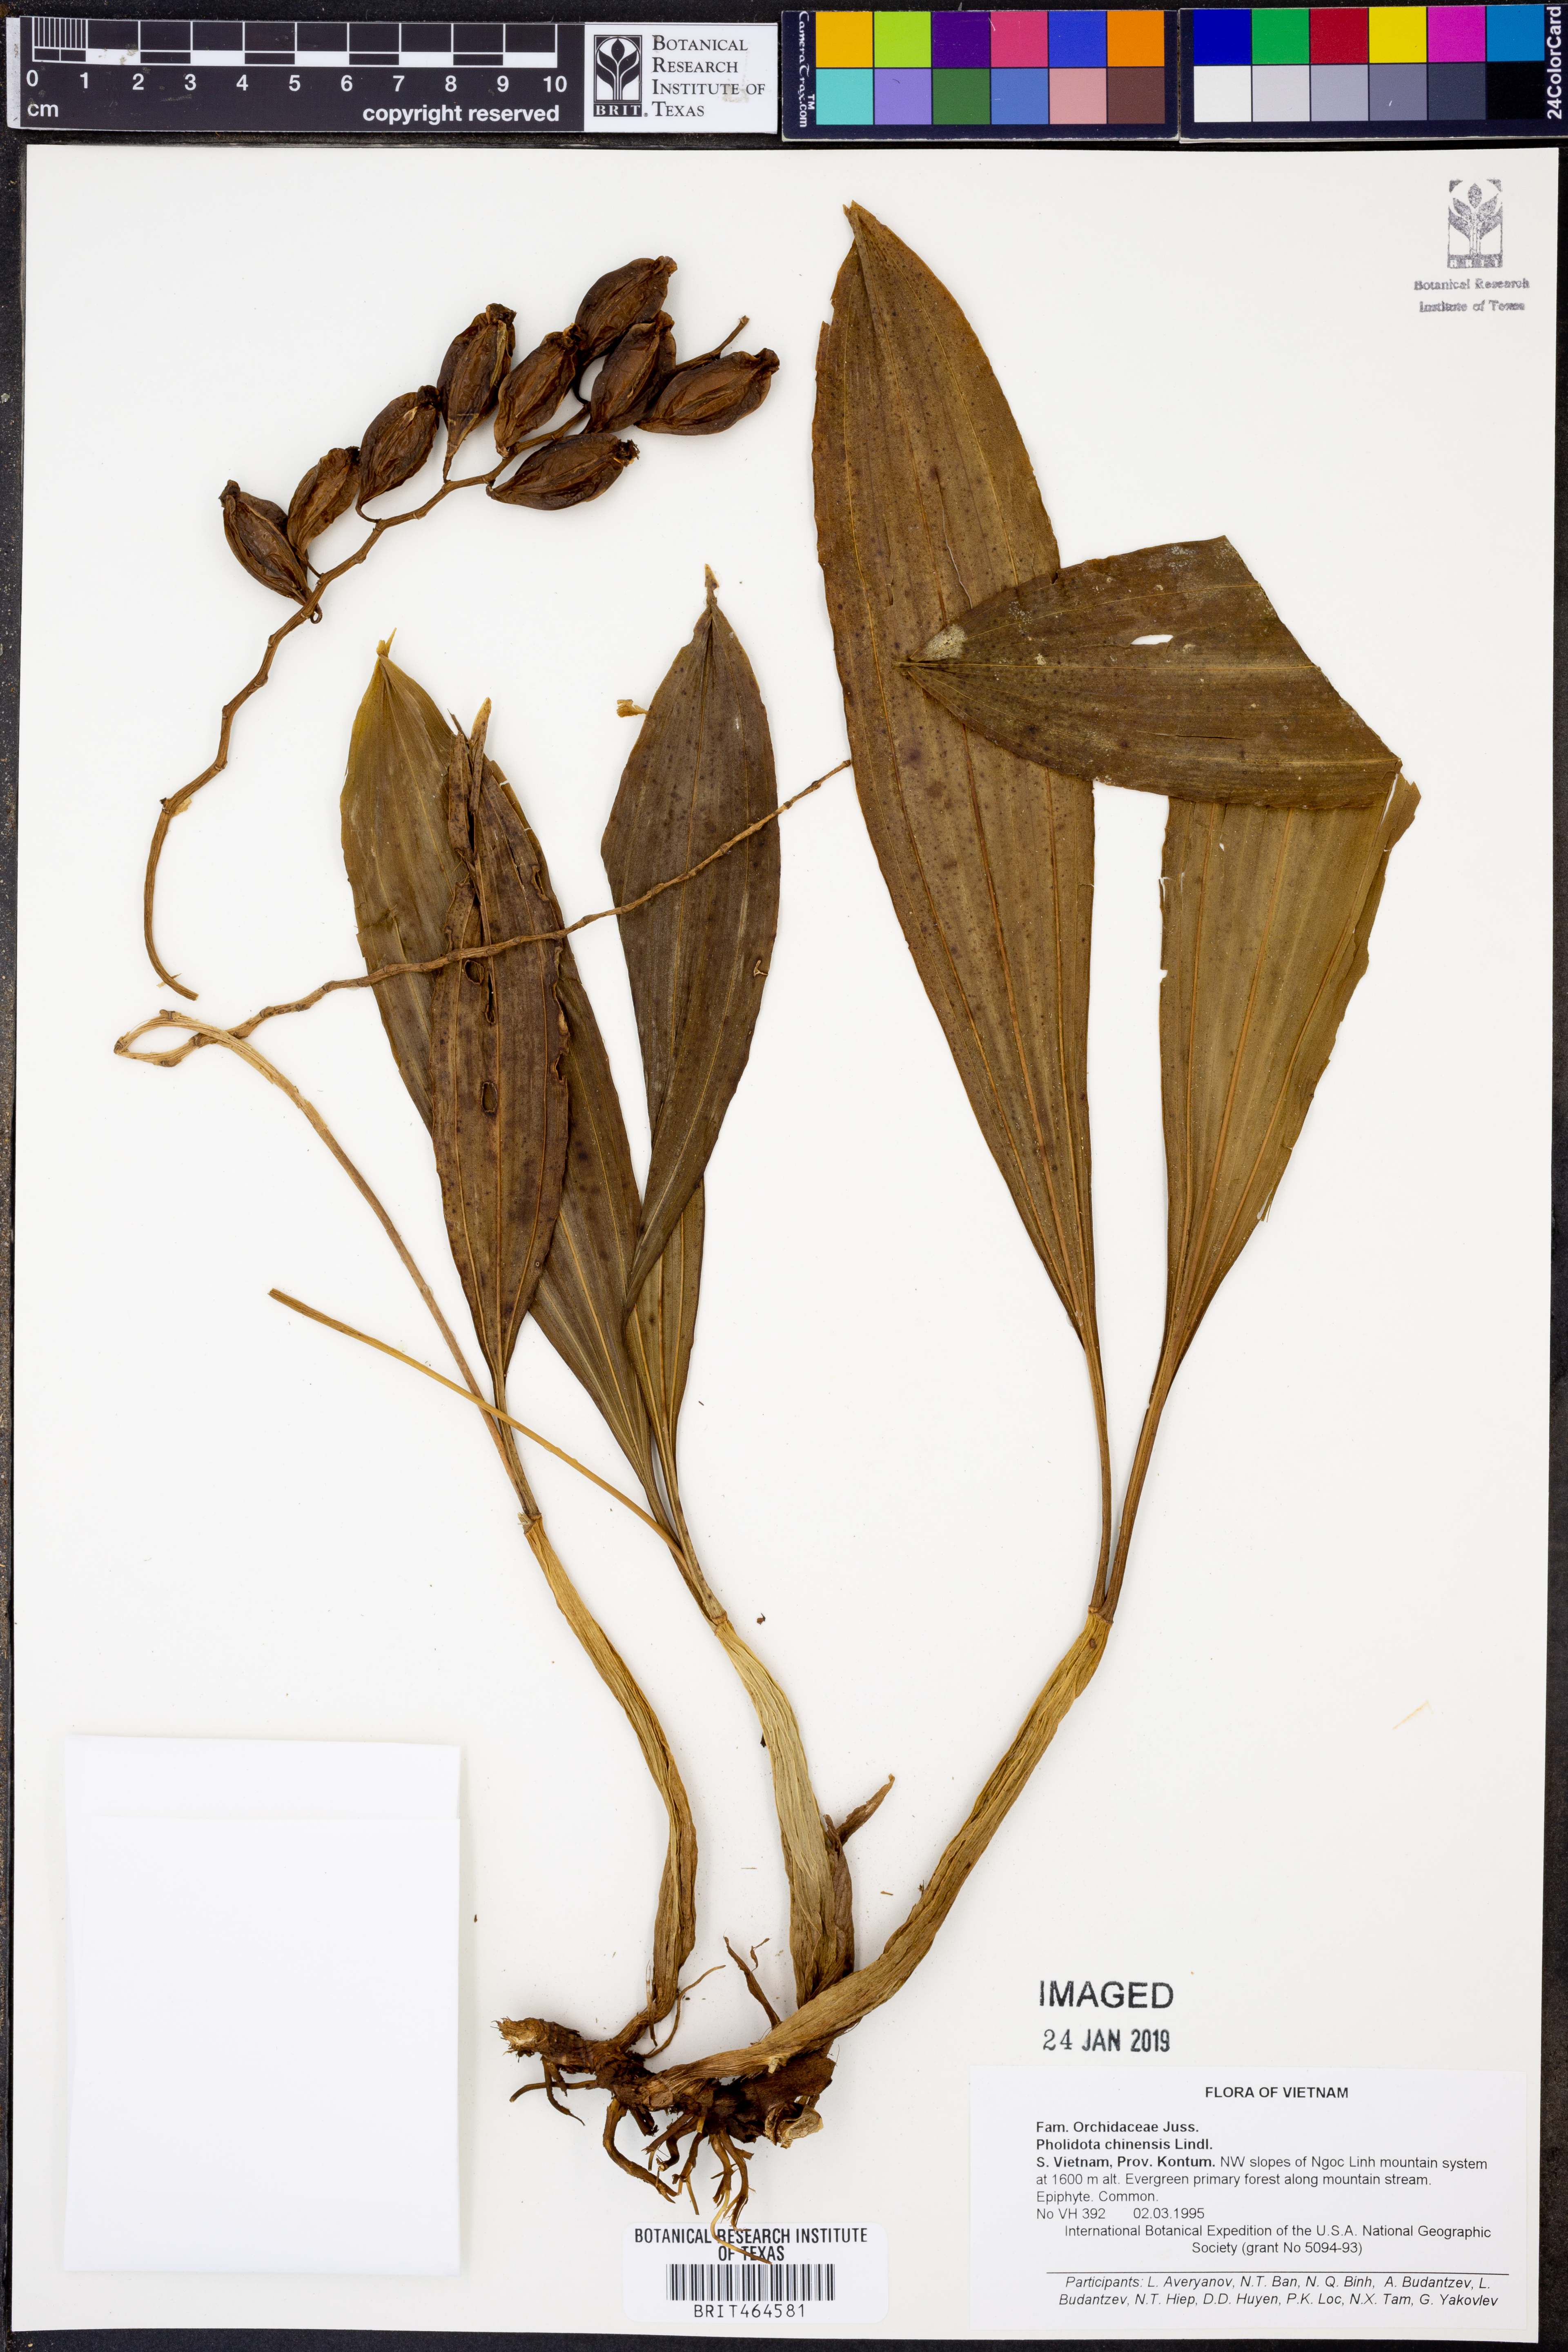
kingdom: Plantae
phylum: Tracheophyta
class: Liliopsida
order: Asparagales
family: Orchidaceae
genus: Coelogyne
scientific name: Coelogyne chinensis
